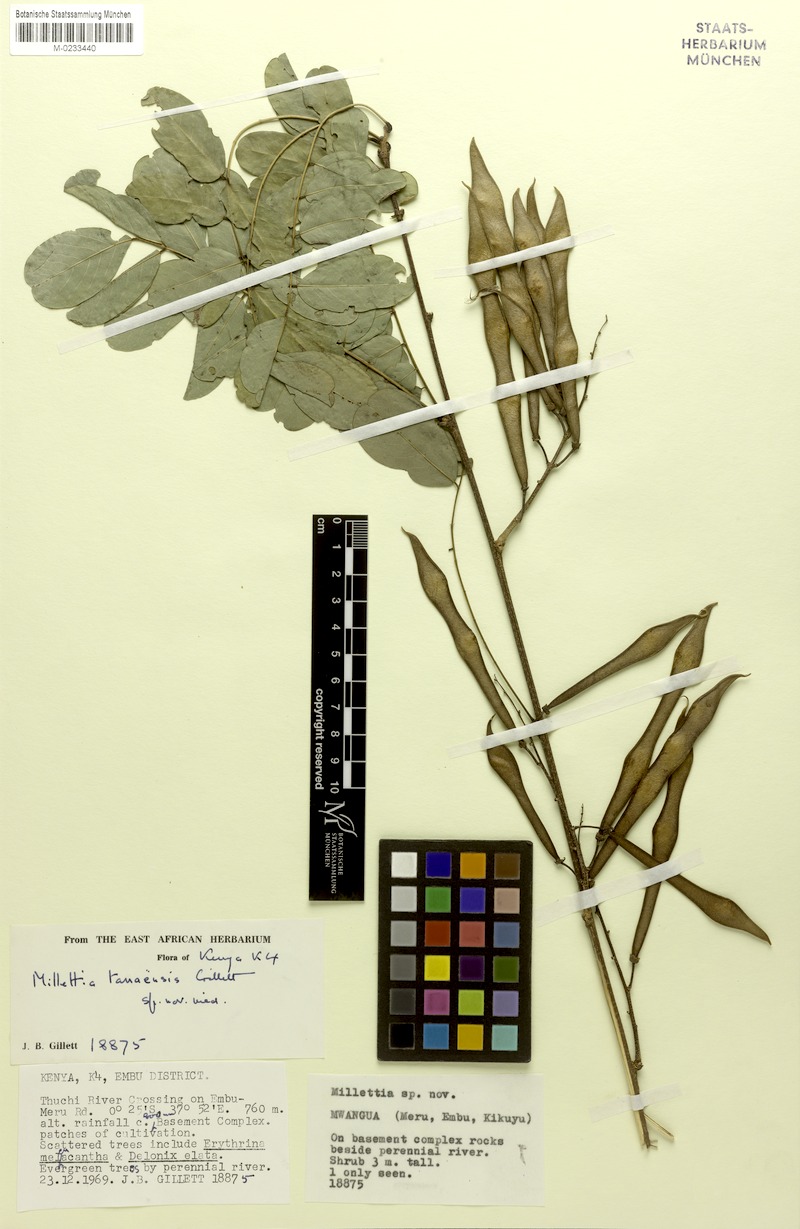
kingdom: Plantae
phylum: Tracheophyta
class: Magnoliopsida
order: Fabales
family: Fabaceae
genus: Millettia
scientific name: Millettia tanaensis
